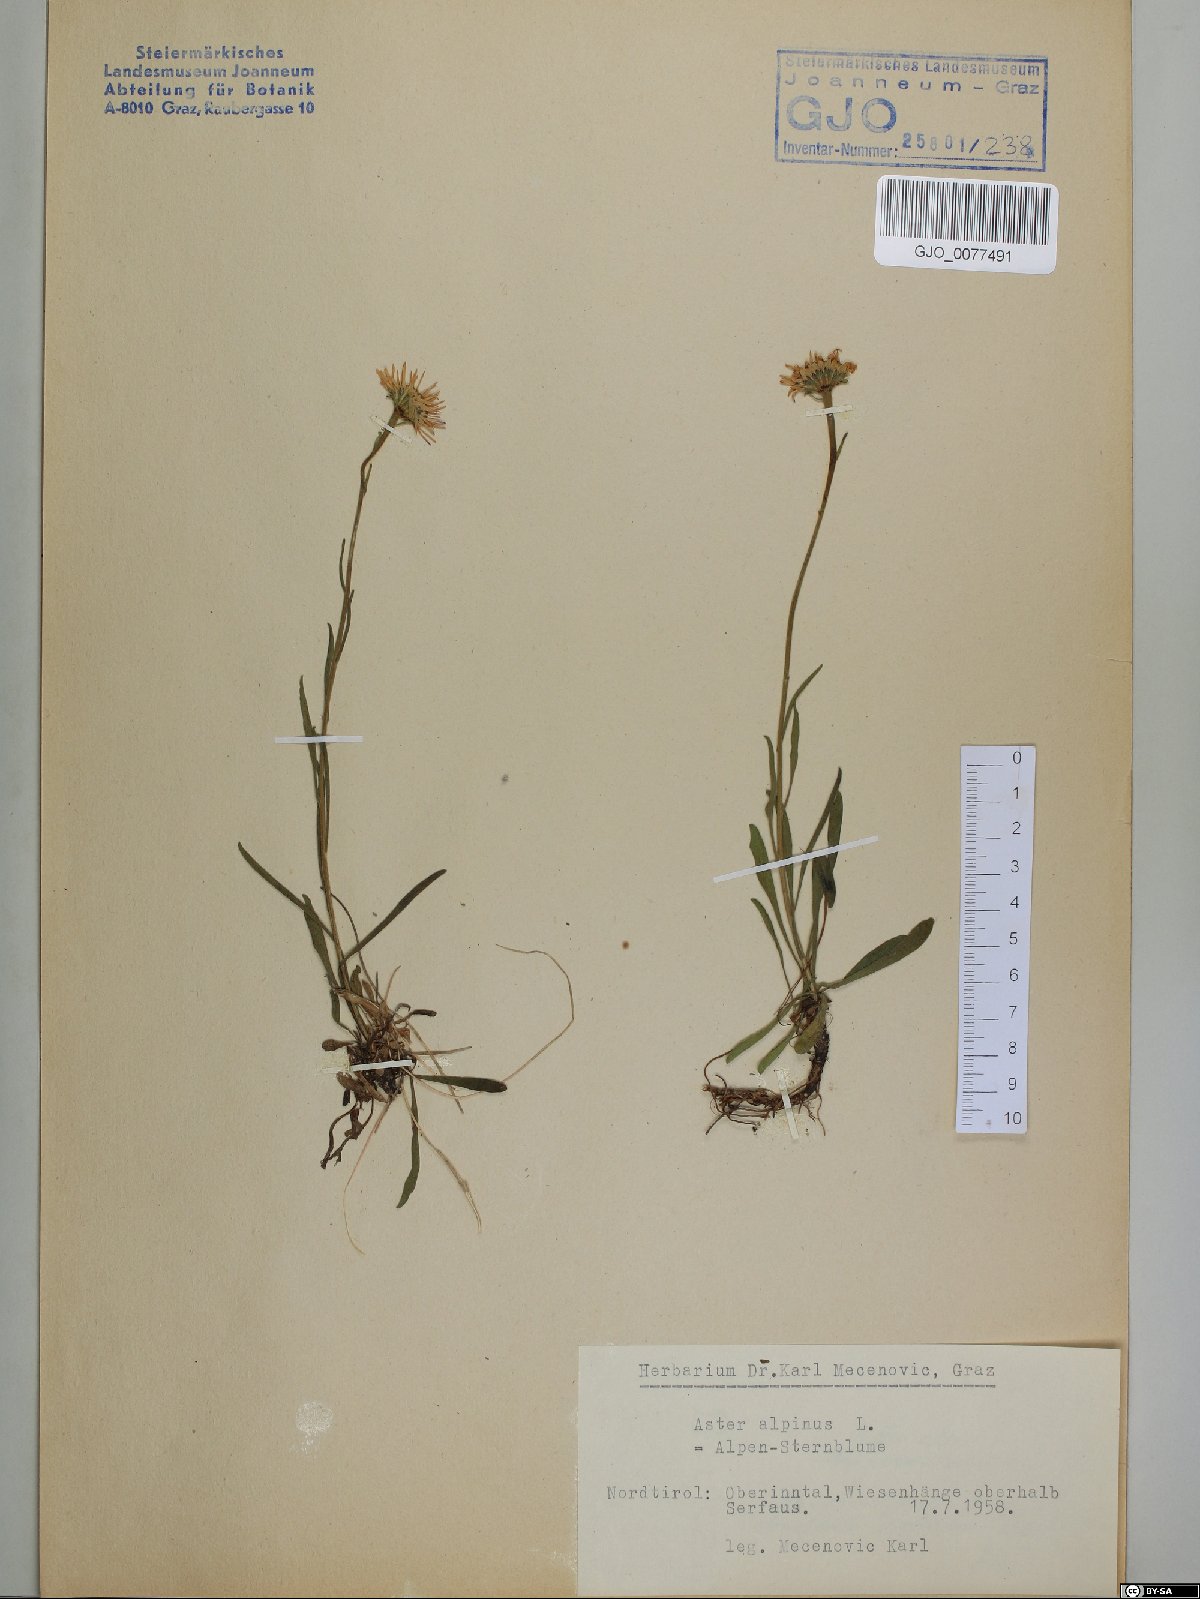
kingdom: Plantae
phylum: Tracheophyta
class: Magnoliopsida
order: Asterales
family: Asteraceae
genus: Aster
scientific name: Aster alpinus
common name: Alpine aster
